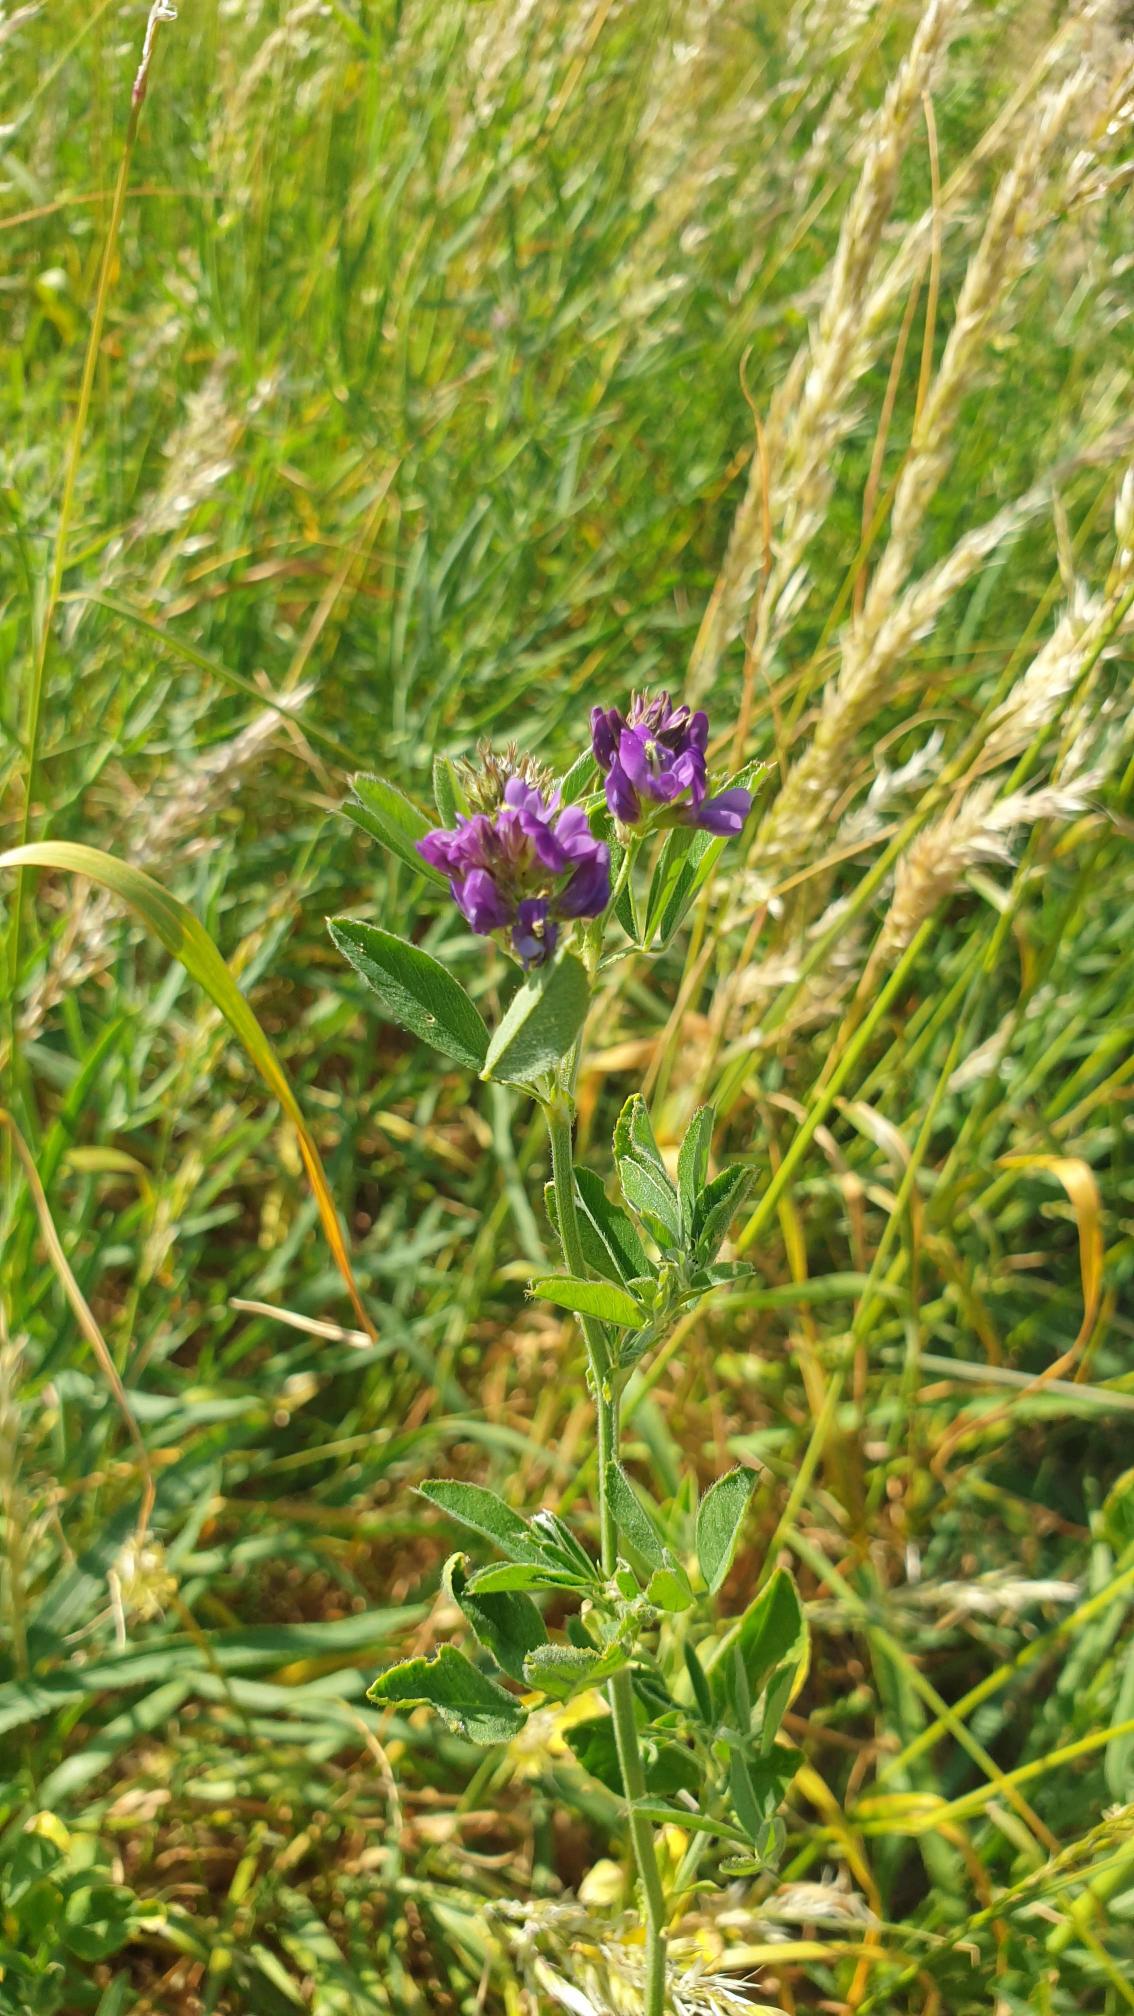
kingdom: Plantae
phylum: Tracheophyta
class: Magnoliopsida
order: Fabales
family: Fabaceae
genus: Medicago
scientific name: Medicago sativa
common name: Lucerne
